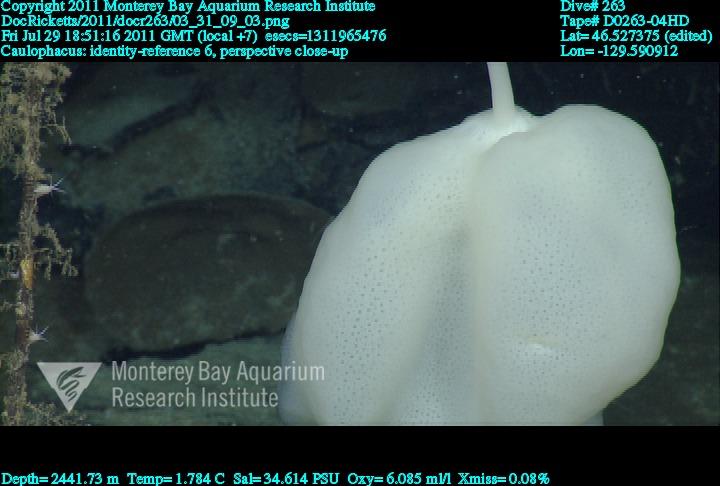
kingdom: Animalia
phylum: Porifera
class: Hexactinellida
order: Lyssacinosida
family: Rossellidae
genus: Caulophacus
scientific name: Caulophacus
